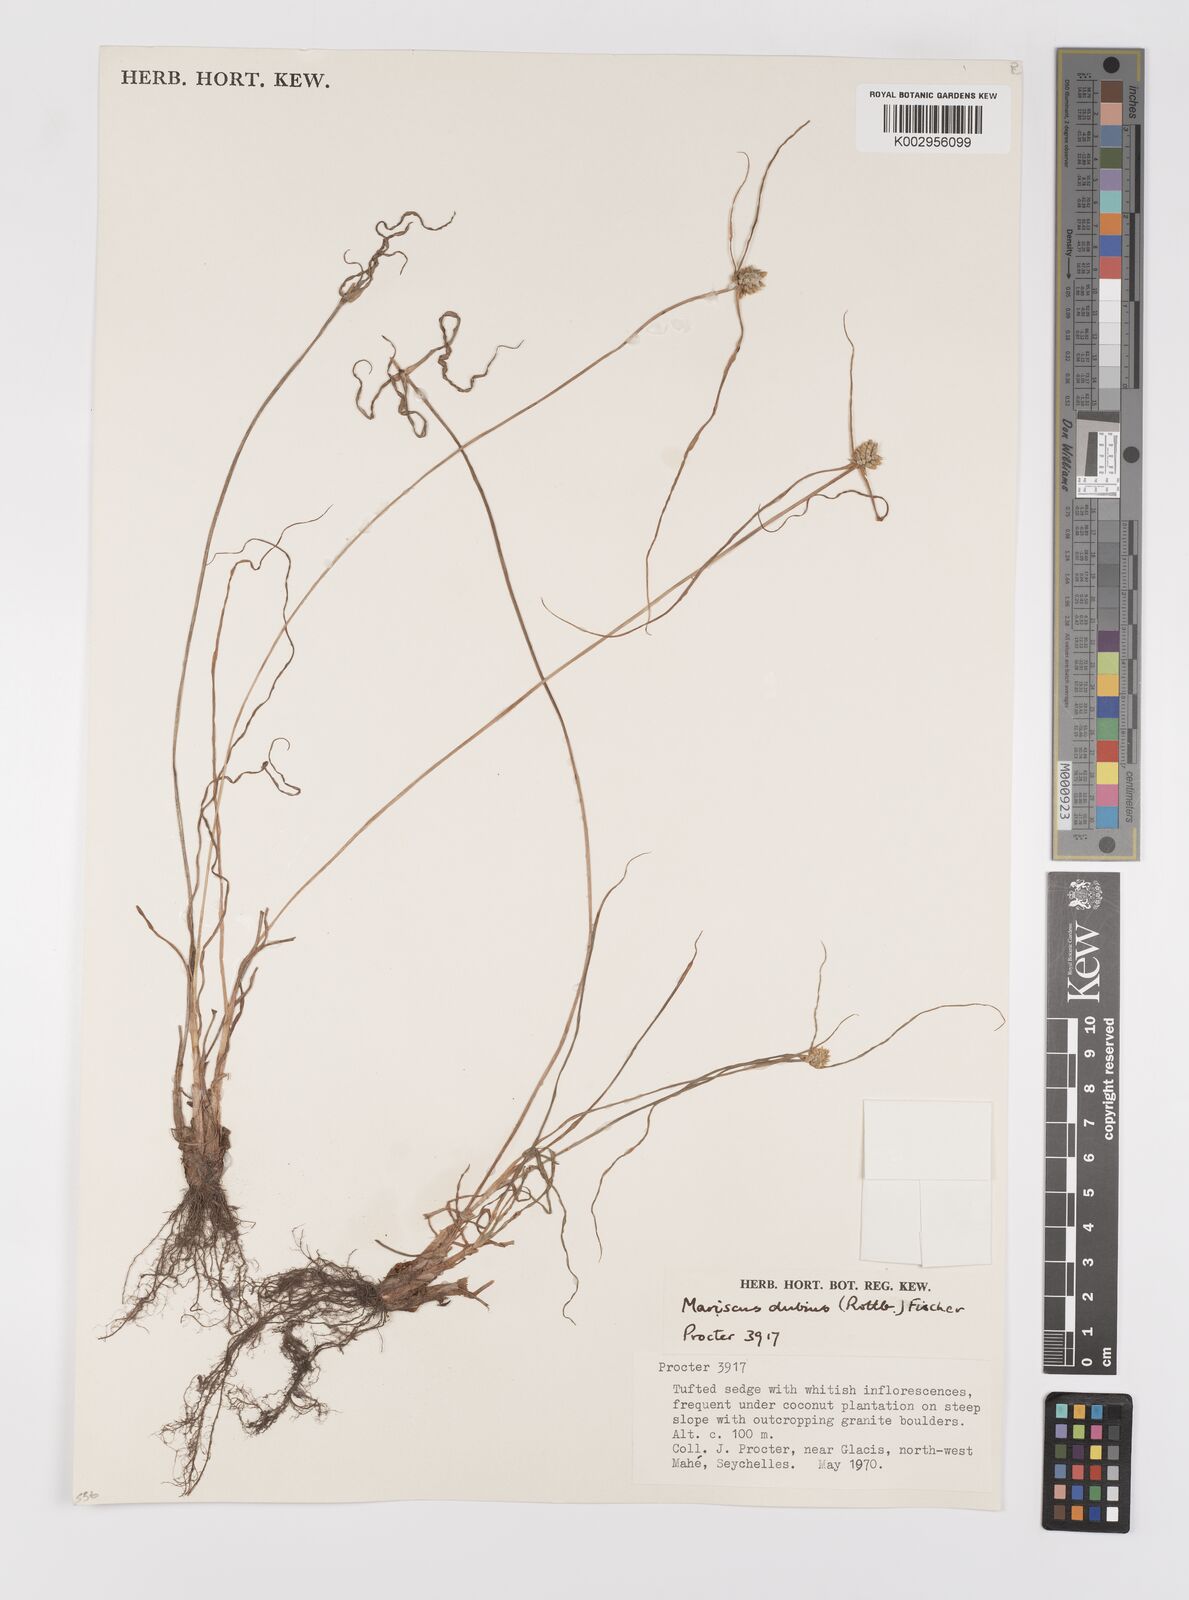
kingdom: Plantae
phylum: Tracheophyta
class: Liliopsida
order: Poales
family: Cyperaceae
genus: Cyperus
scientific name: Cyperus dubius
